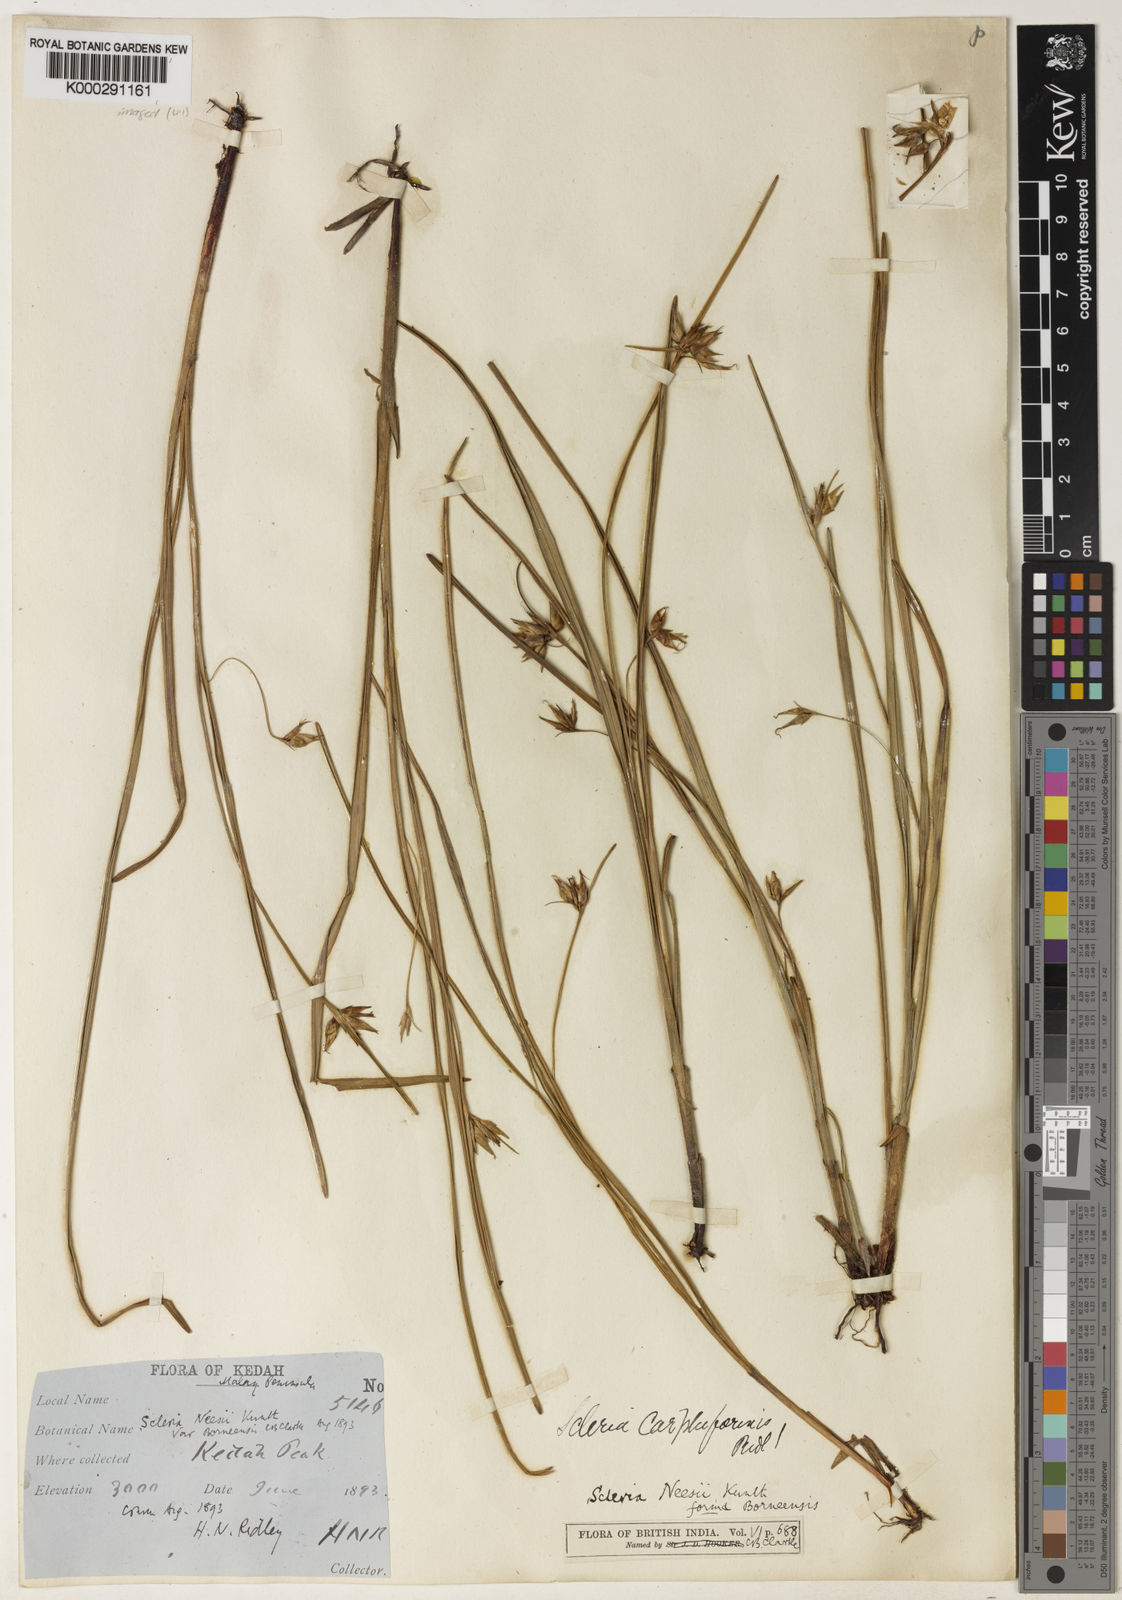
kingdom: Plantae
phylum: Tracheophyta
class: Liliopsida
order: Poales
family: Cyperaceae
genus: Scleria
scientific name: Scleria carphiformis
